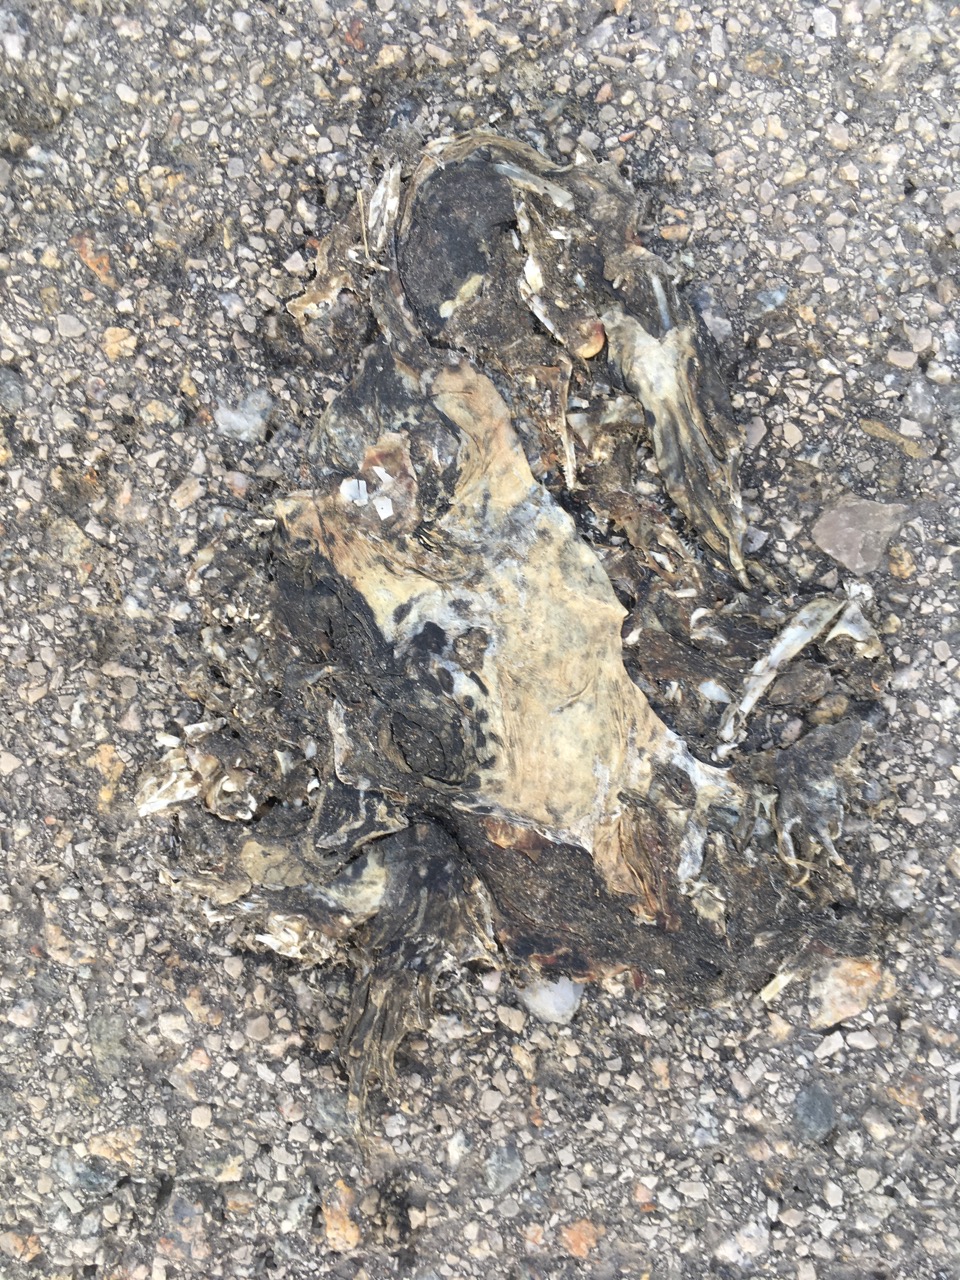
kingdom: Animalia
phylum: Chordata
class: Amphibia
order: Anura
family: Bufonidae
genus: Bufotes
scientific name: Bufotes viridis
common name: European green toad
